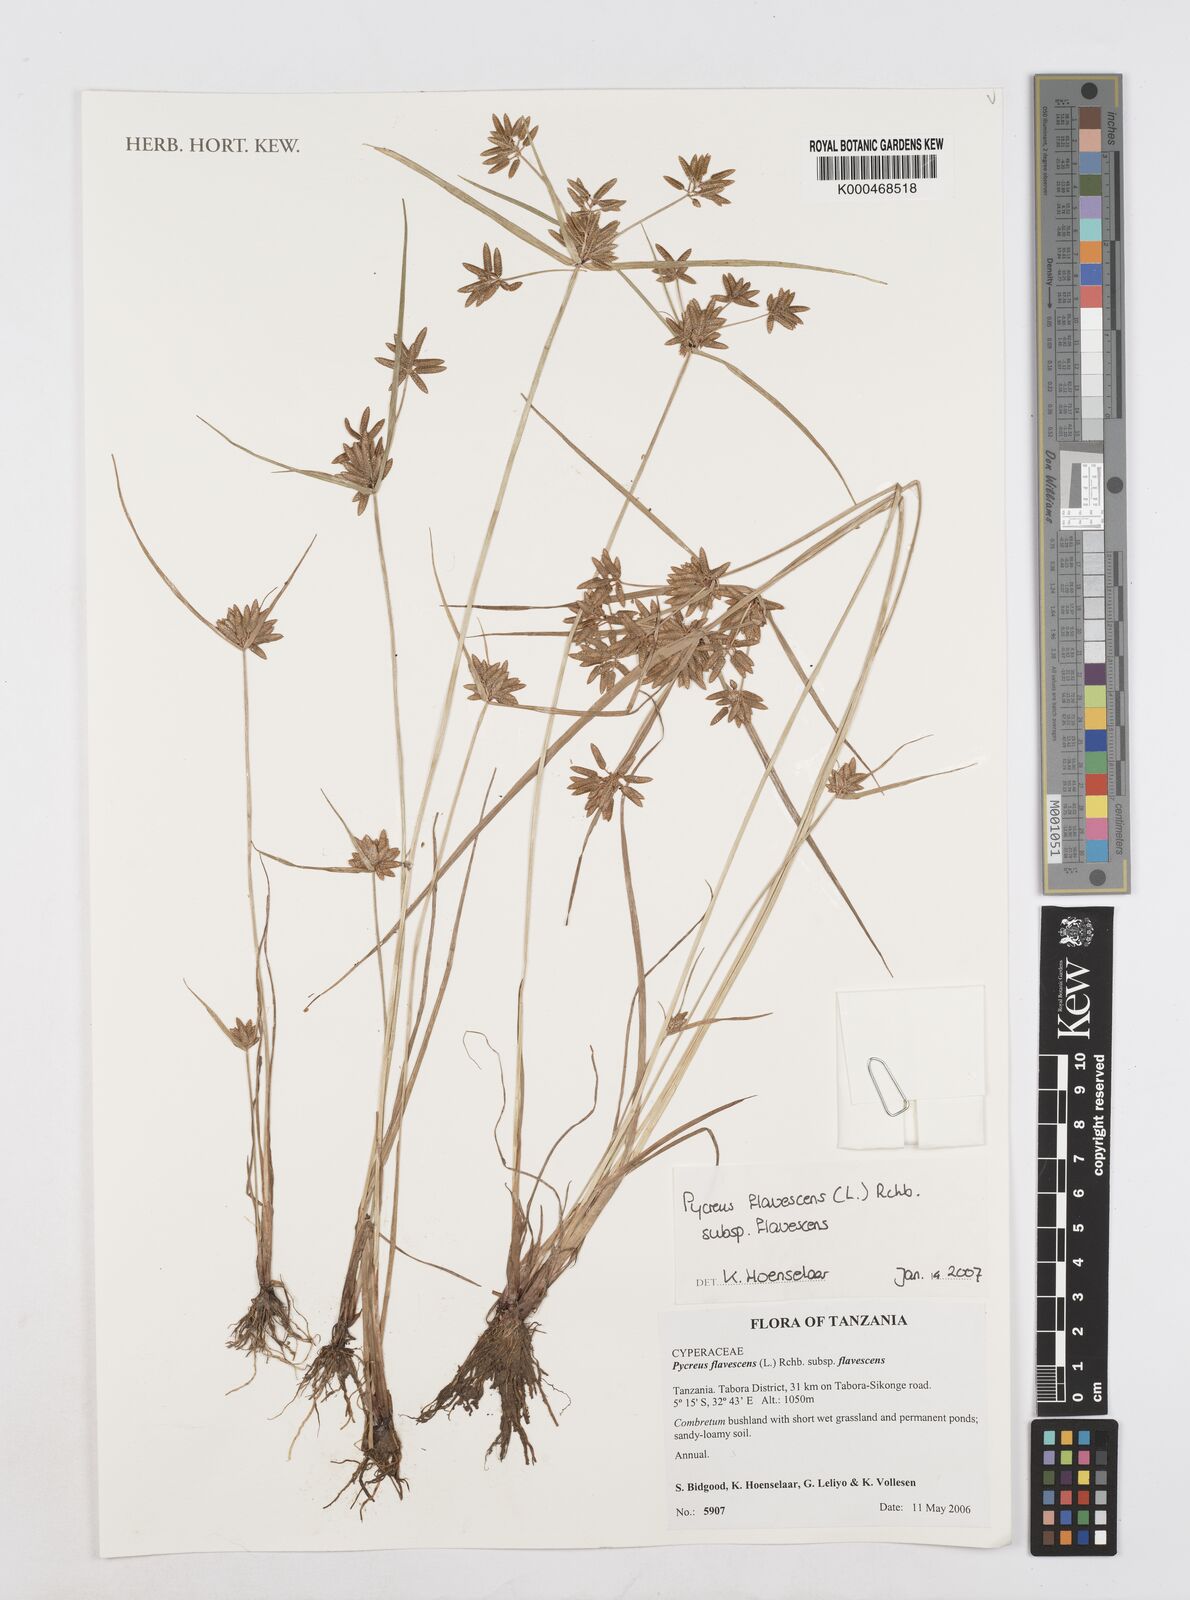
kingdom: Plantae
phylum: Tracheophyta
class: Liliopsida
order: Poales
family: Cyperaceae
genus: Cyperus
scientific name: Cyperus flavescens
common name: Yellow galingale
